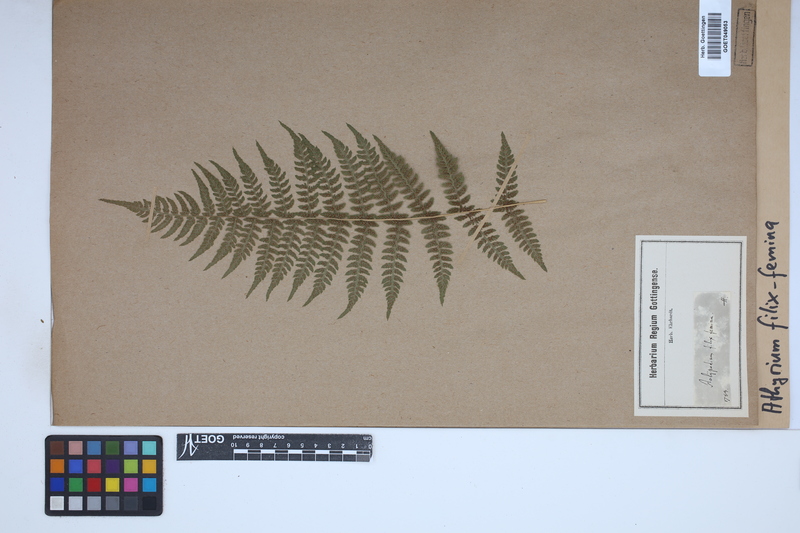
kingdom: Plantae
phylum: Tracheophyta
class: Polypodiopsida
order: Polypodiales
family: Athyriaceae
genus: Athyrium
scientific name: Athyrium filix-femina
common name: Lady fern
